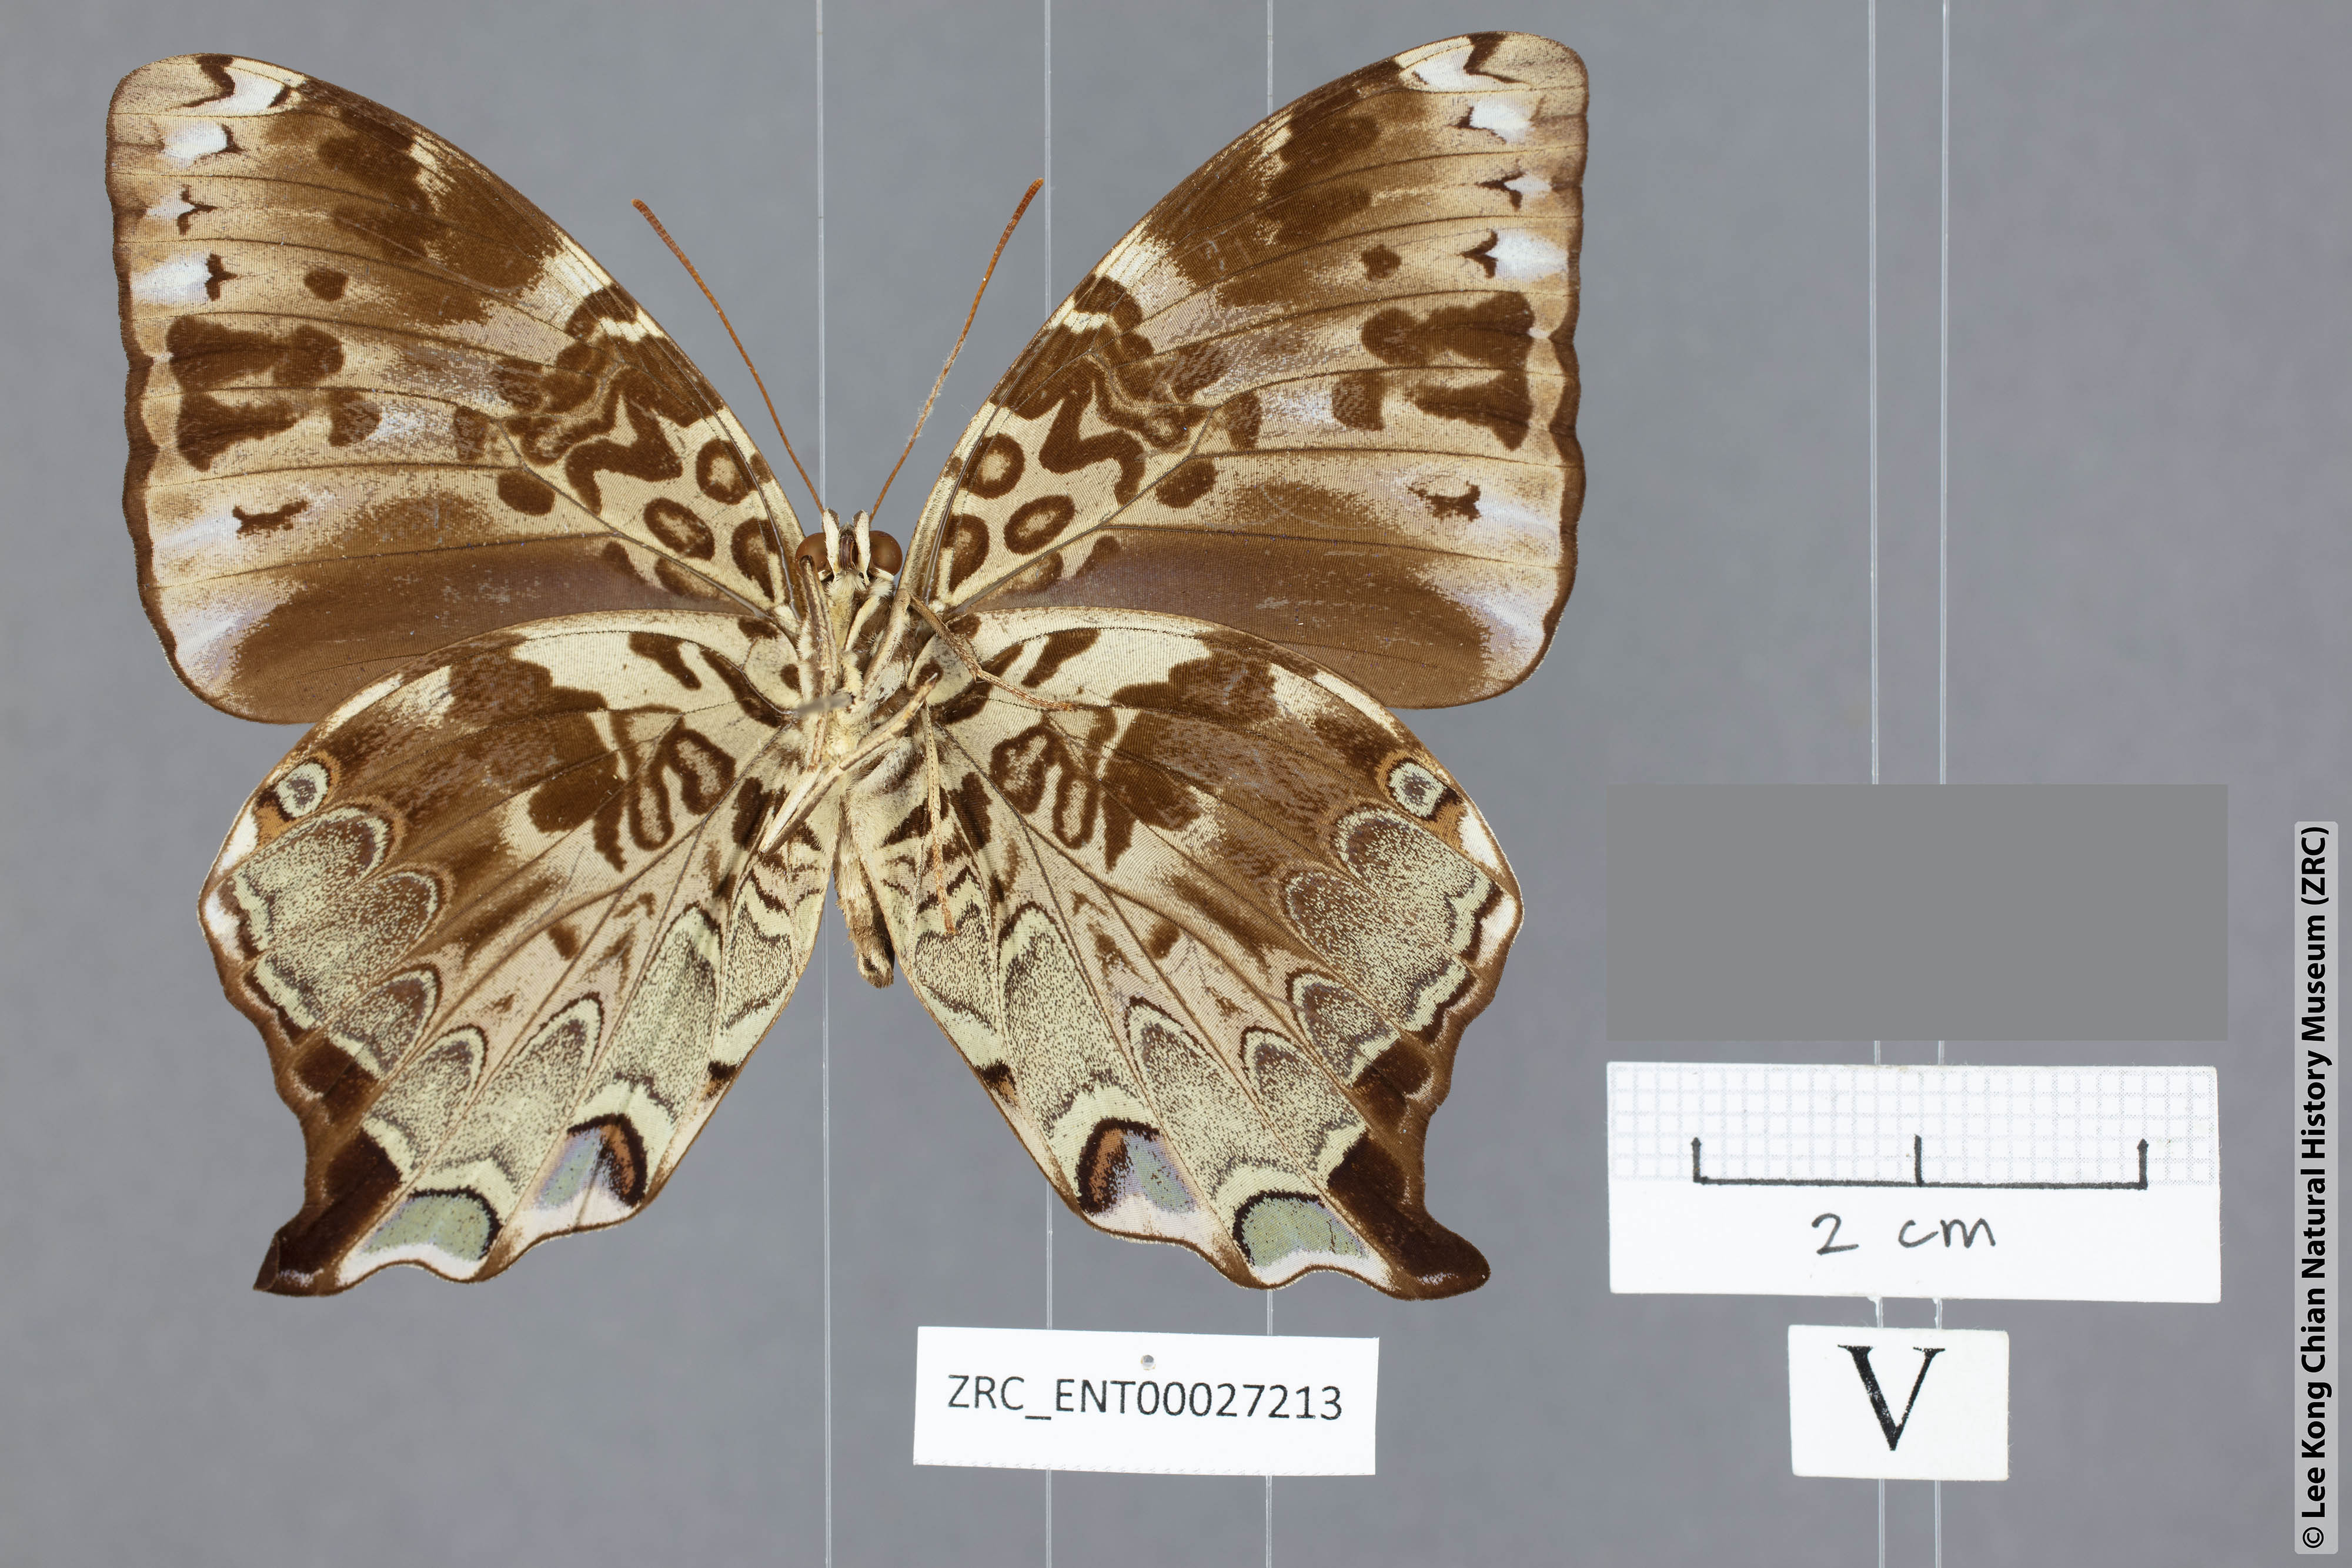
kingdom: Animalia
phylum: Arthropoda
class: Insecta
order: Lepidoptera
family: Nymphalidae
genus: Prothoe
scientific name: Prothoe
